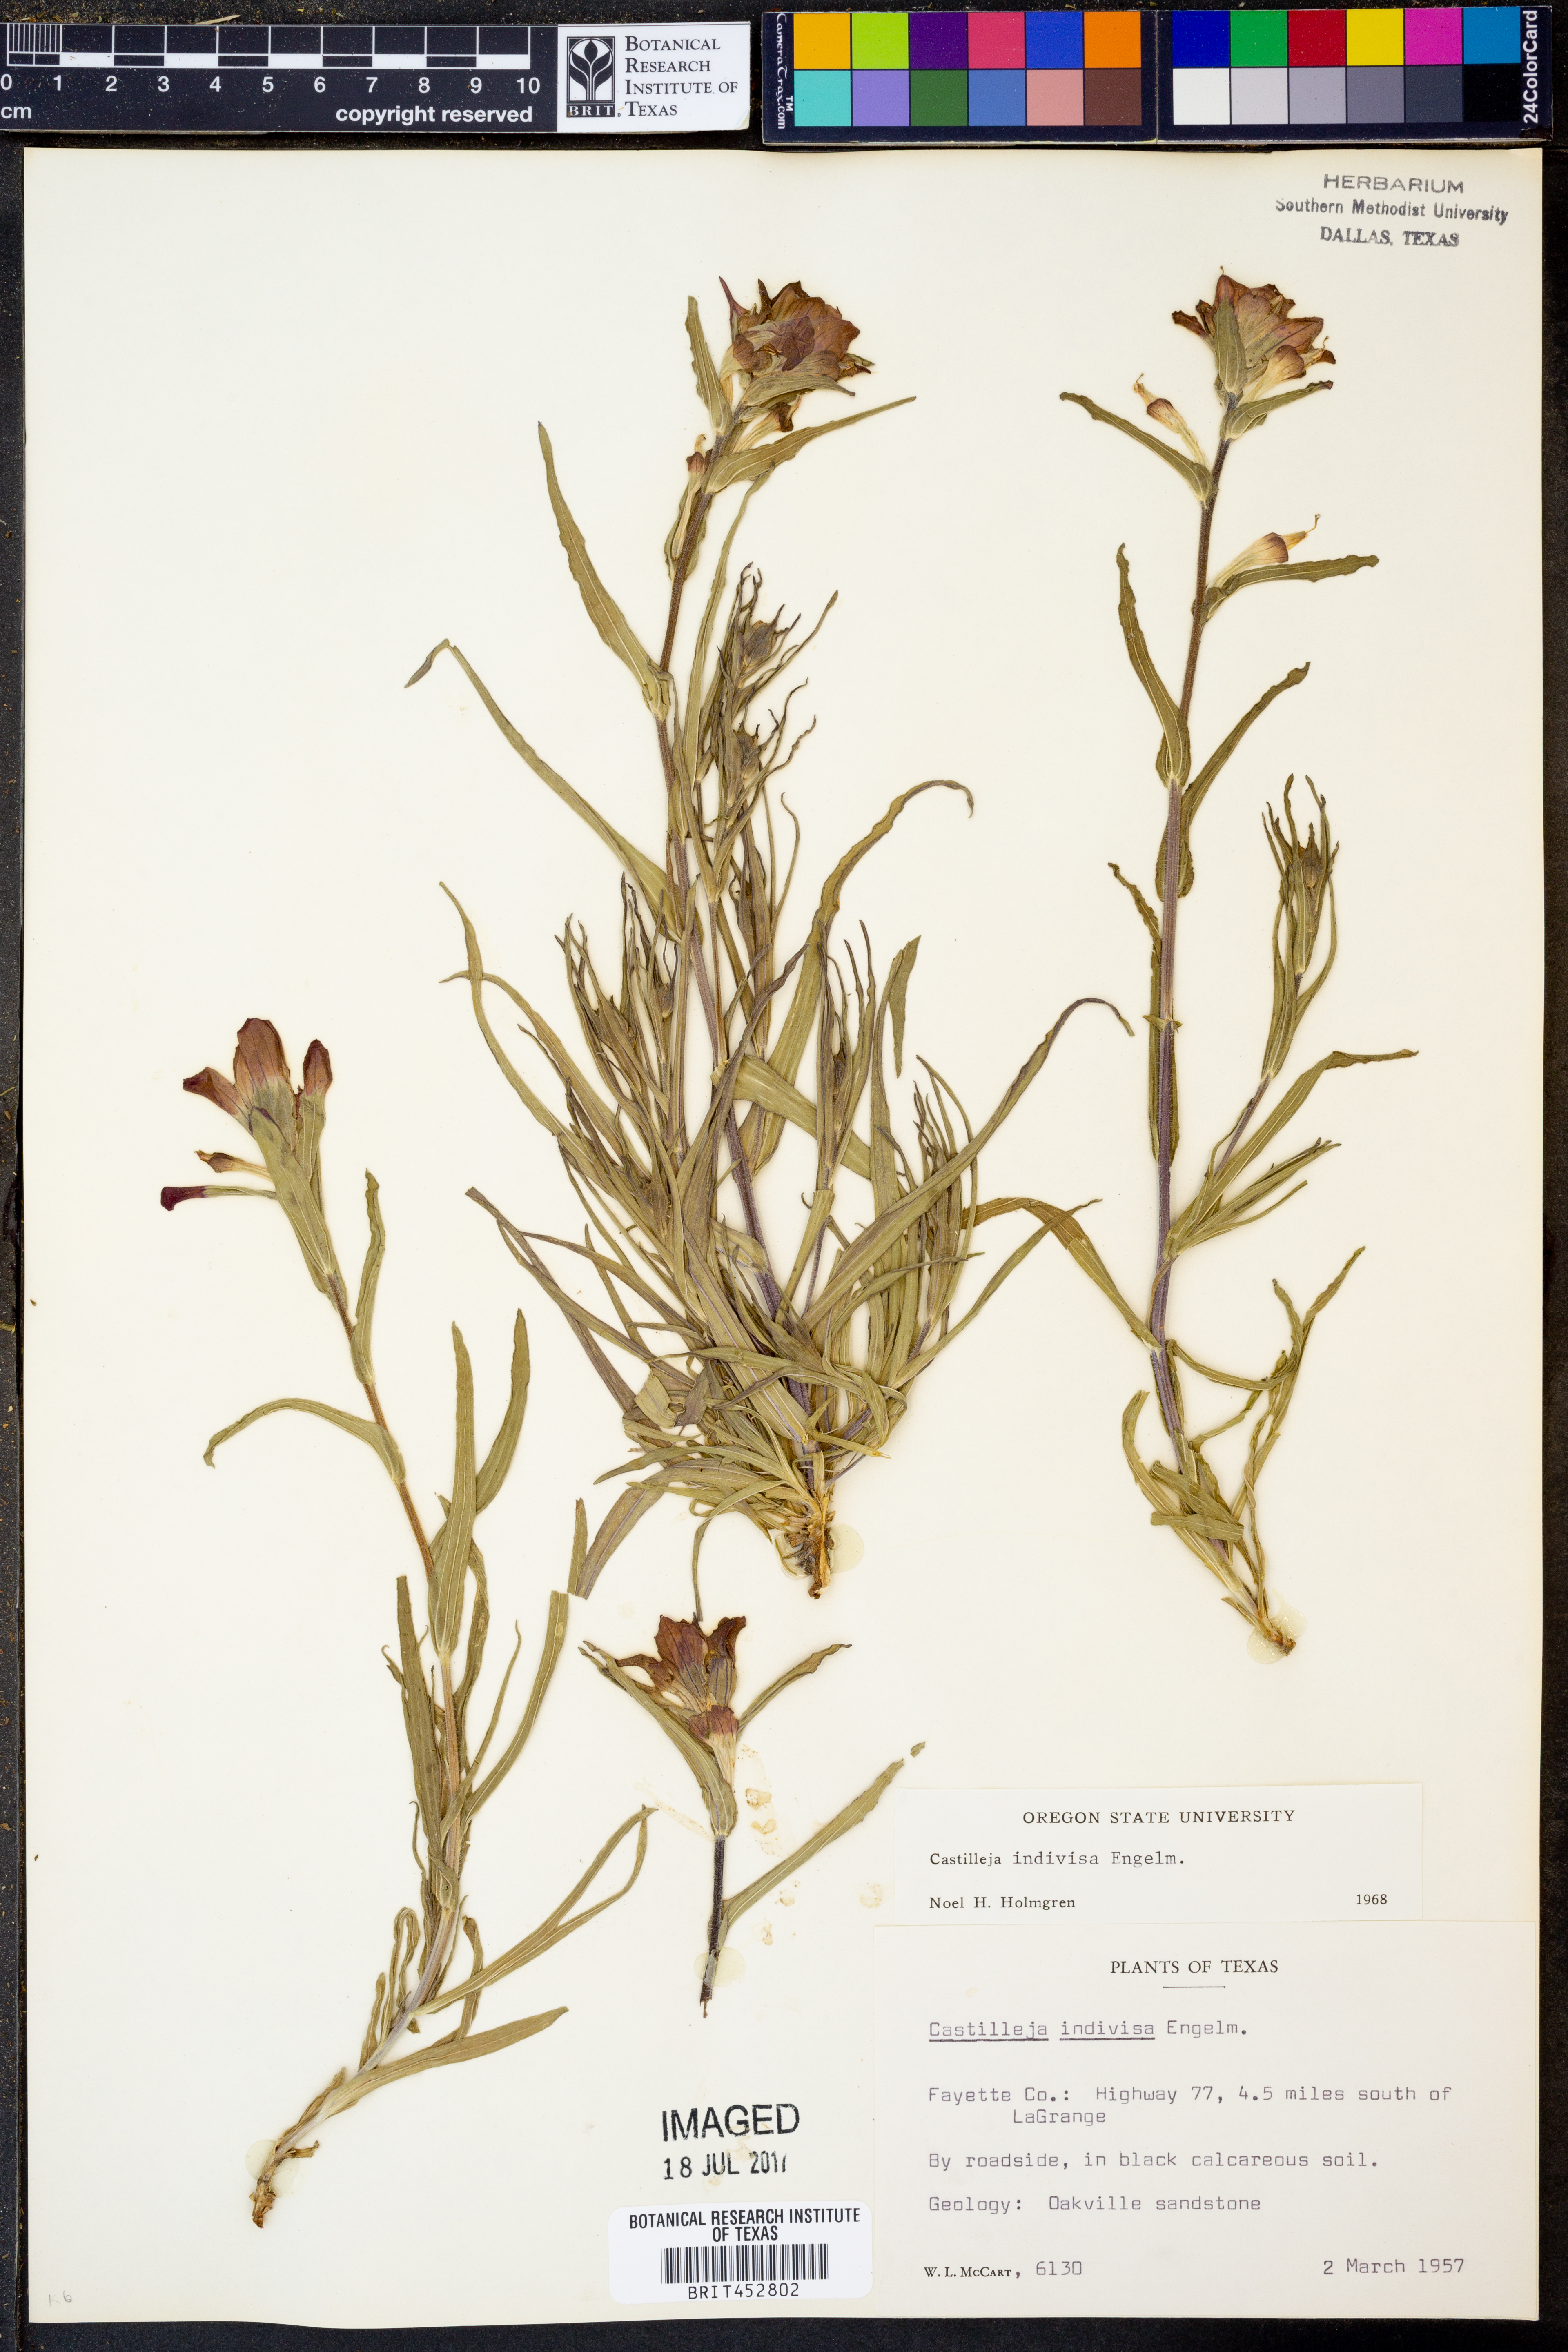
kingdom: Plantae
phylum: Tracheophyta
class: Magnoliopsida
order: Lamiales
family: Orobanchaceae
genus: Castilleja
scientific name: Castilleja indivisa
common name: Texas paintbrush
